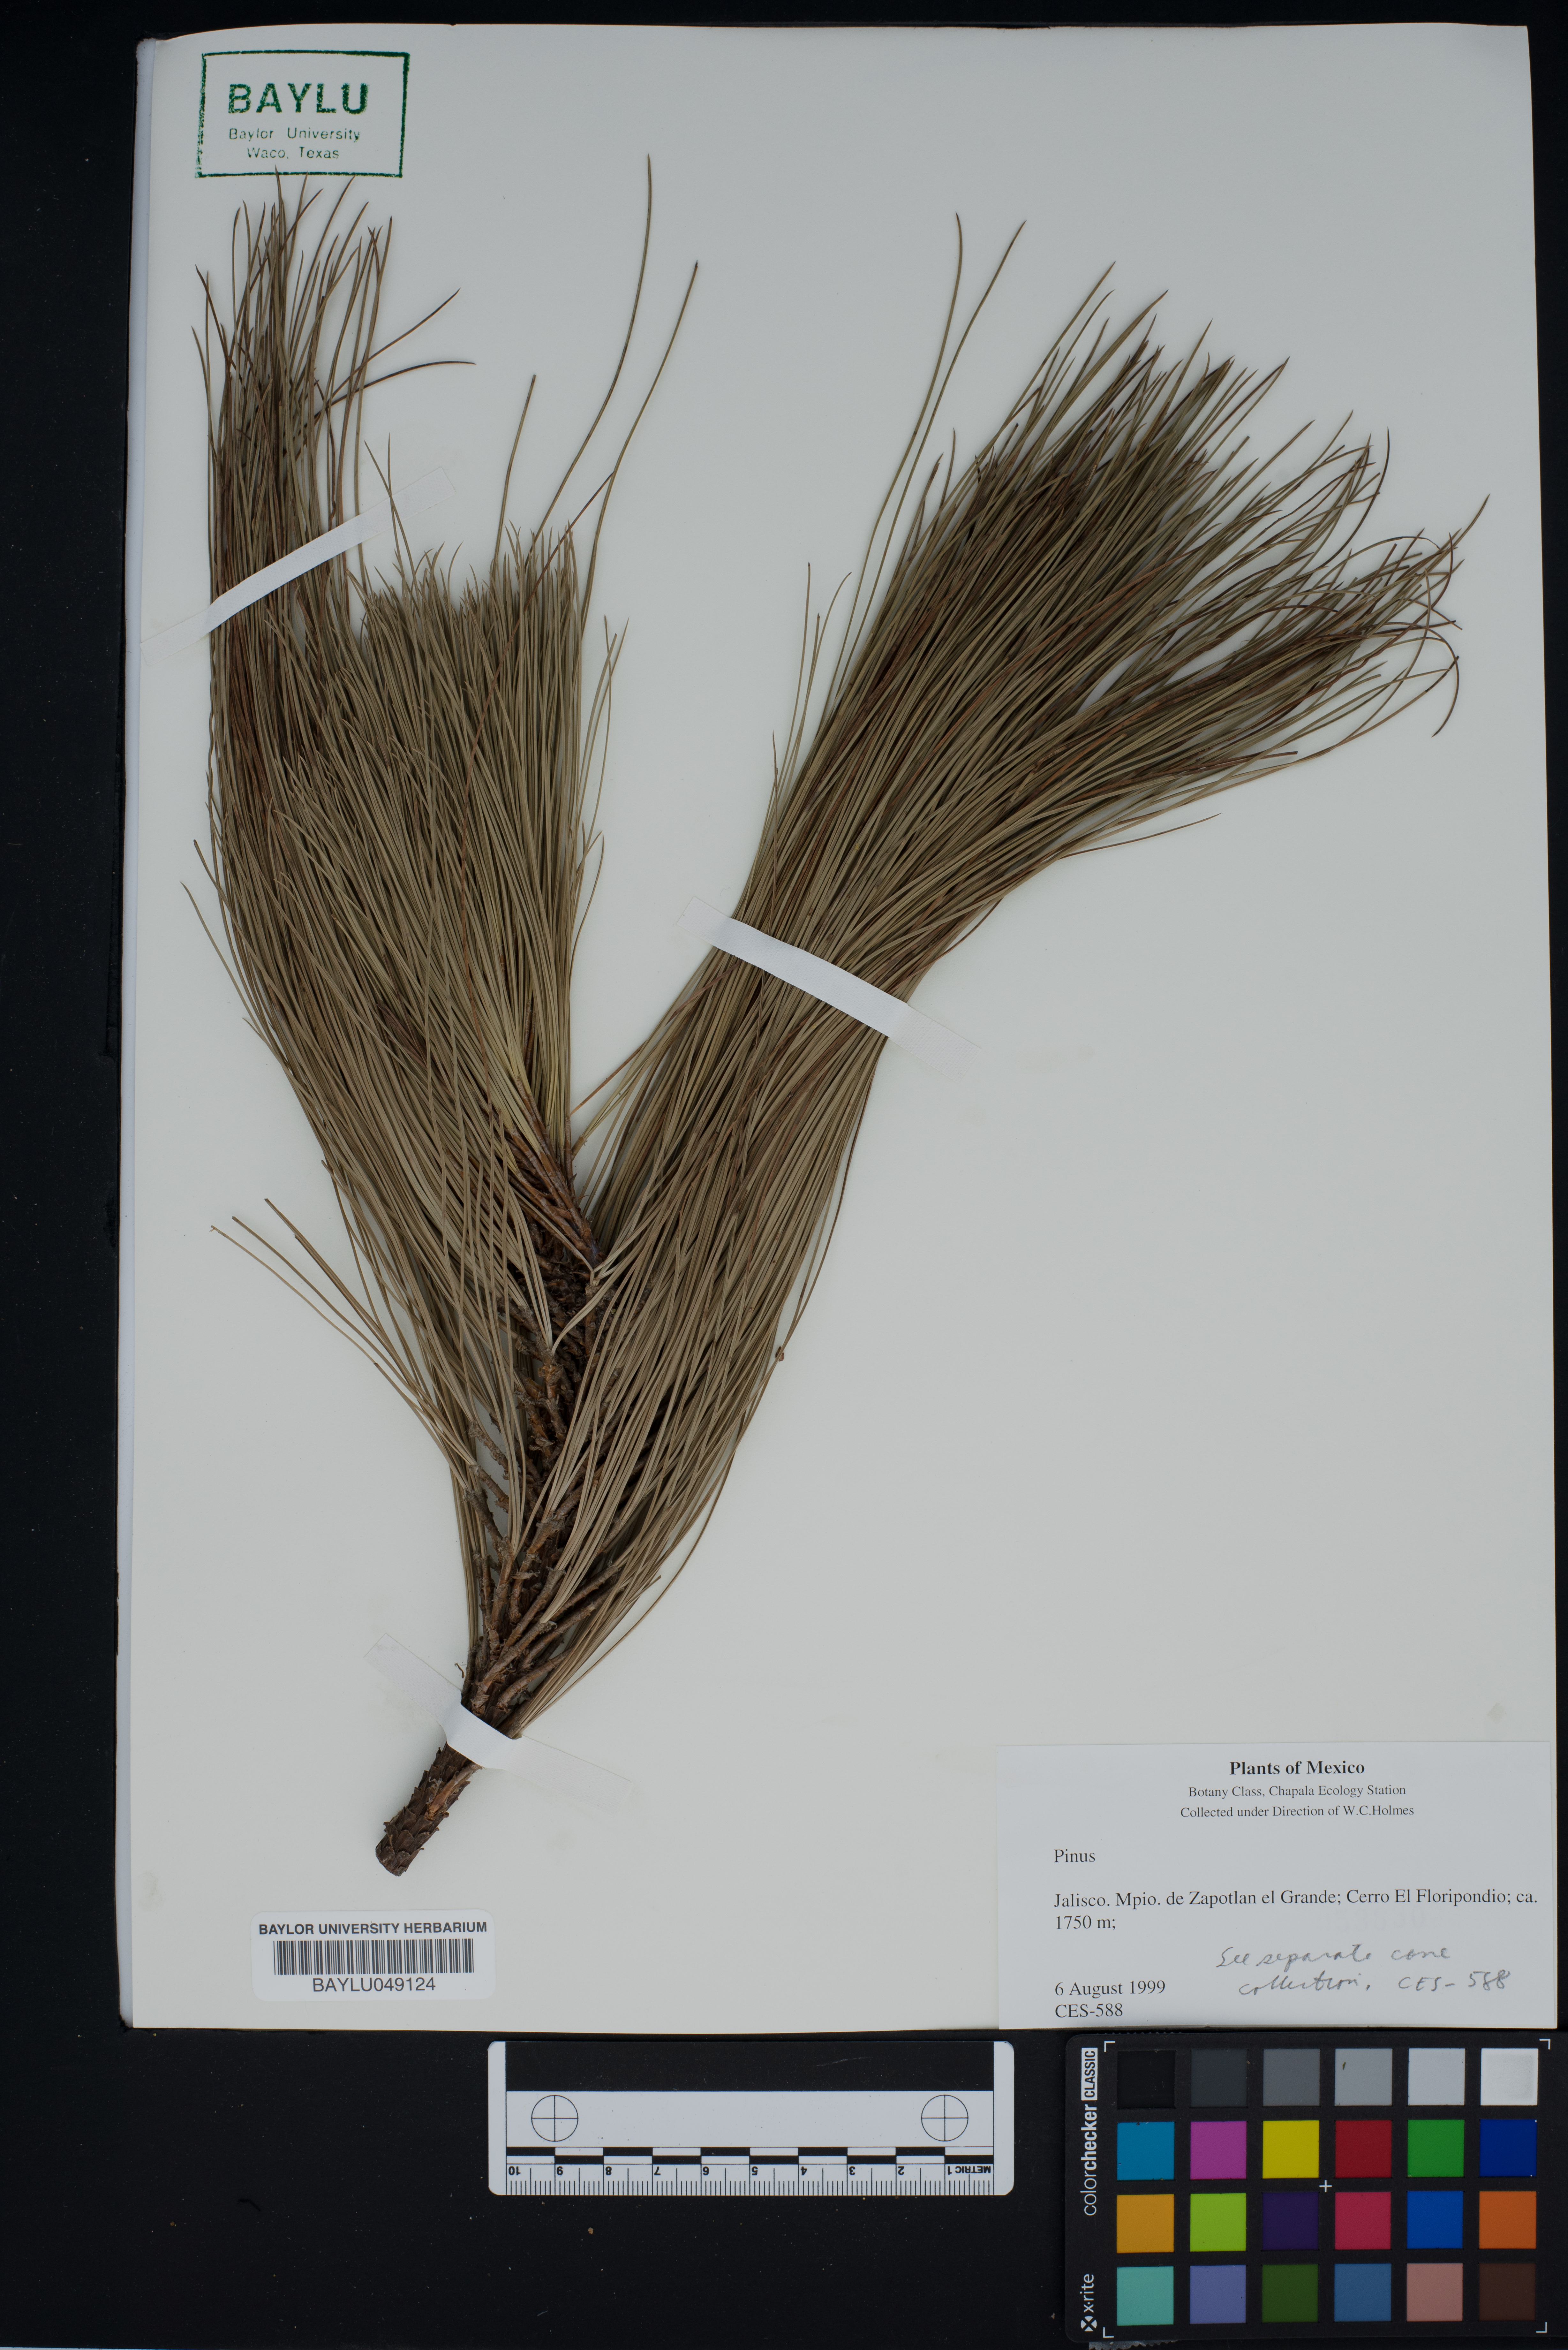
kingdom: Plantae
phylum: Tracheophyta
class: Pinopsida
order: Pinales
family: Pinaceae
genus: Pinus
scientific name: Pinus
